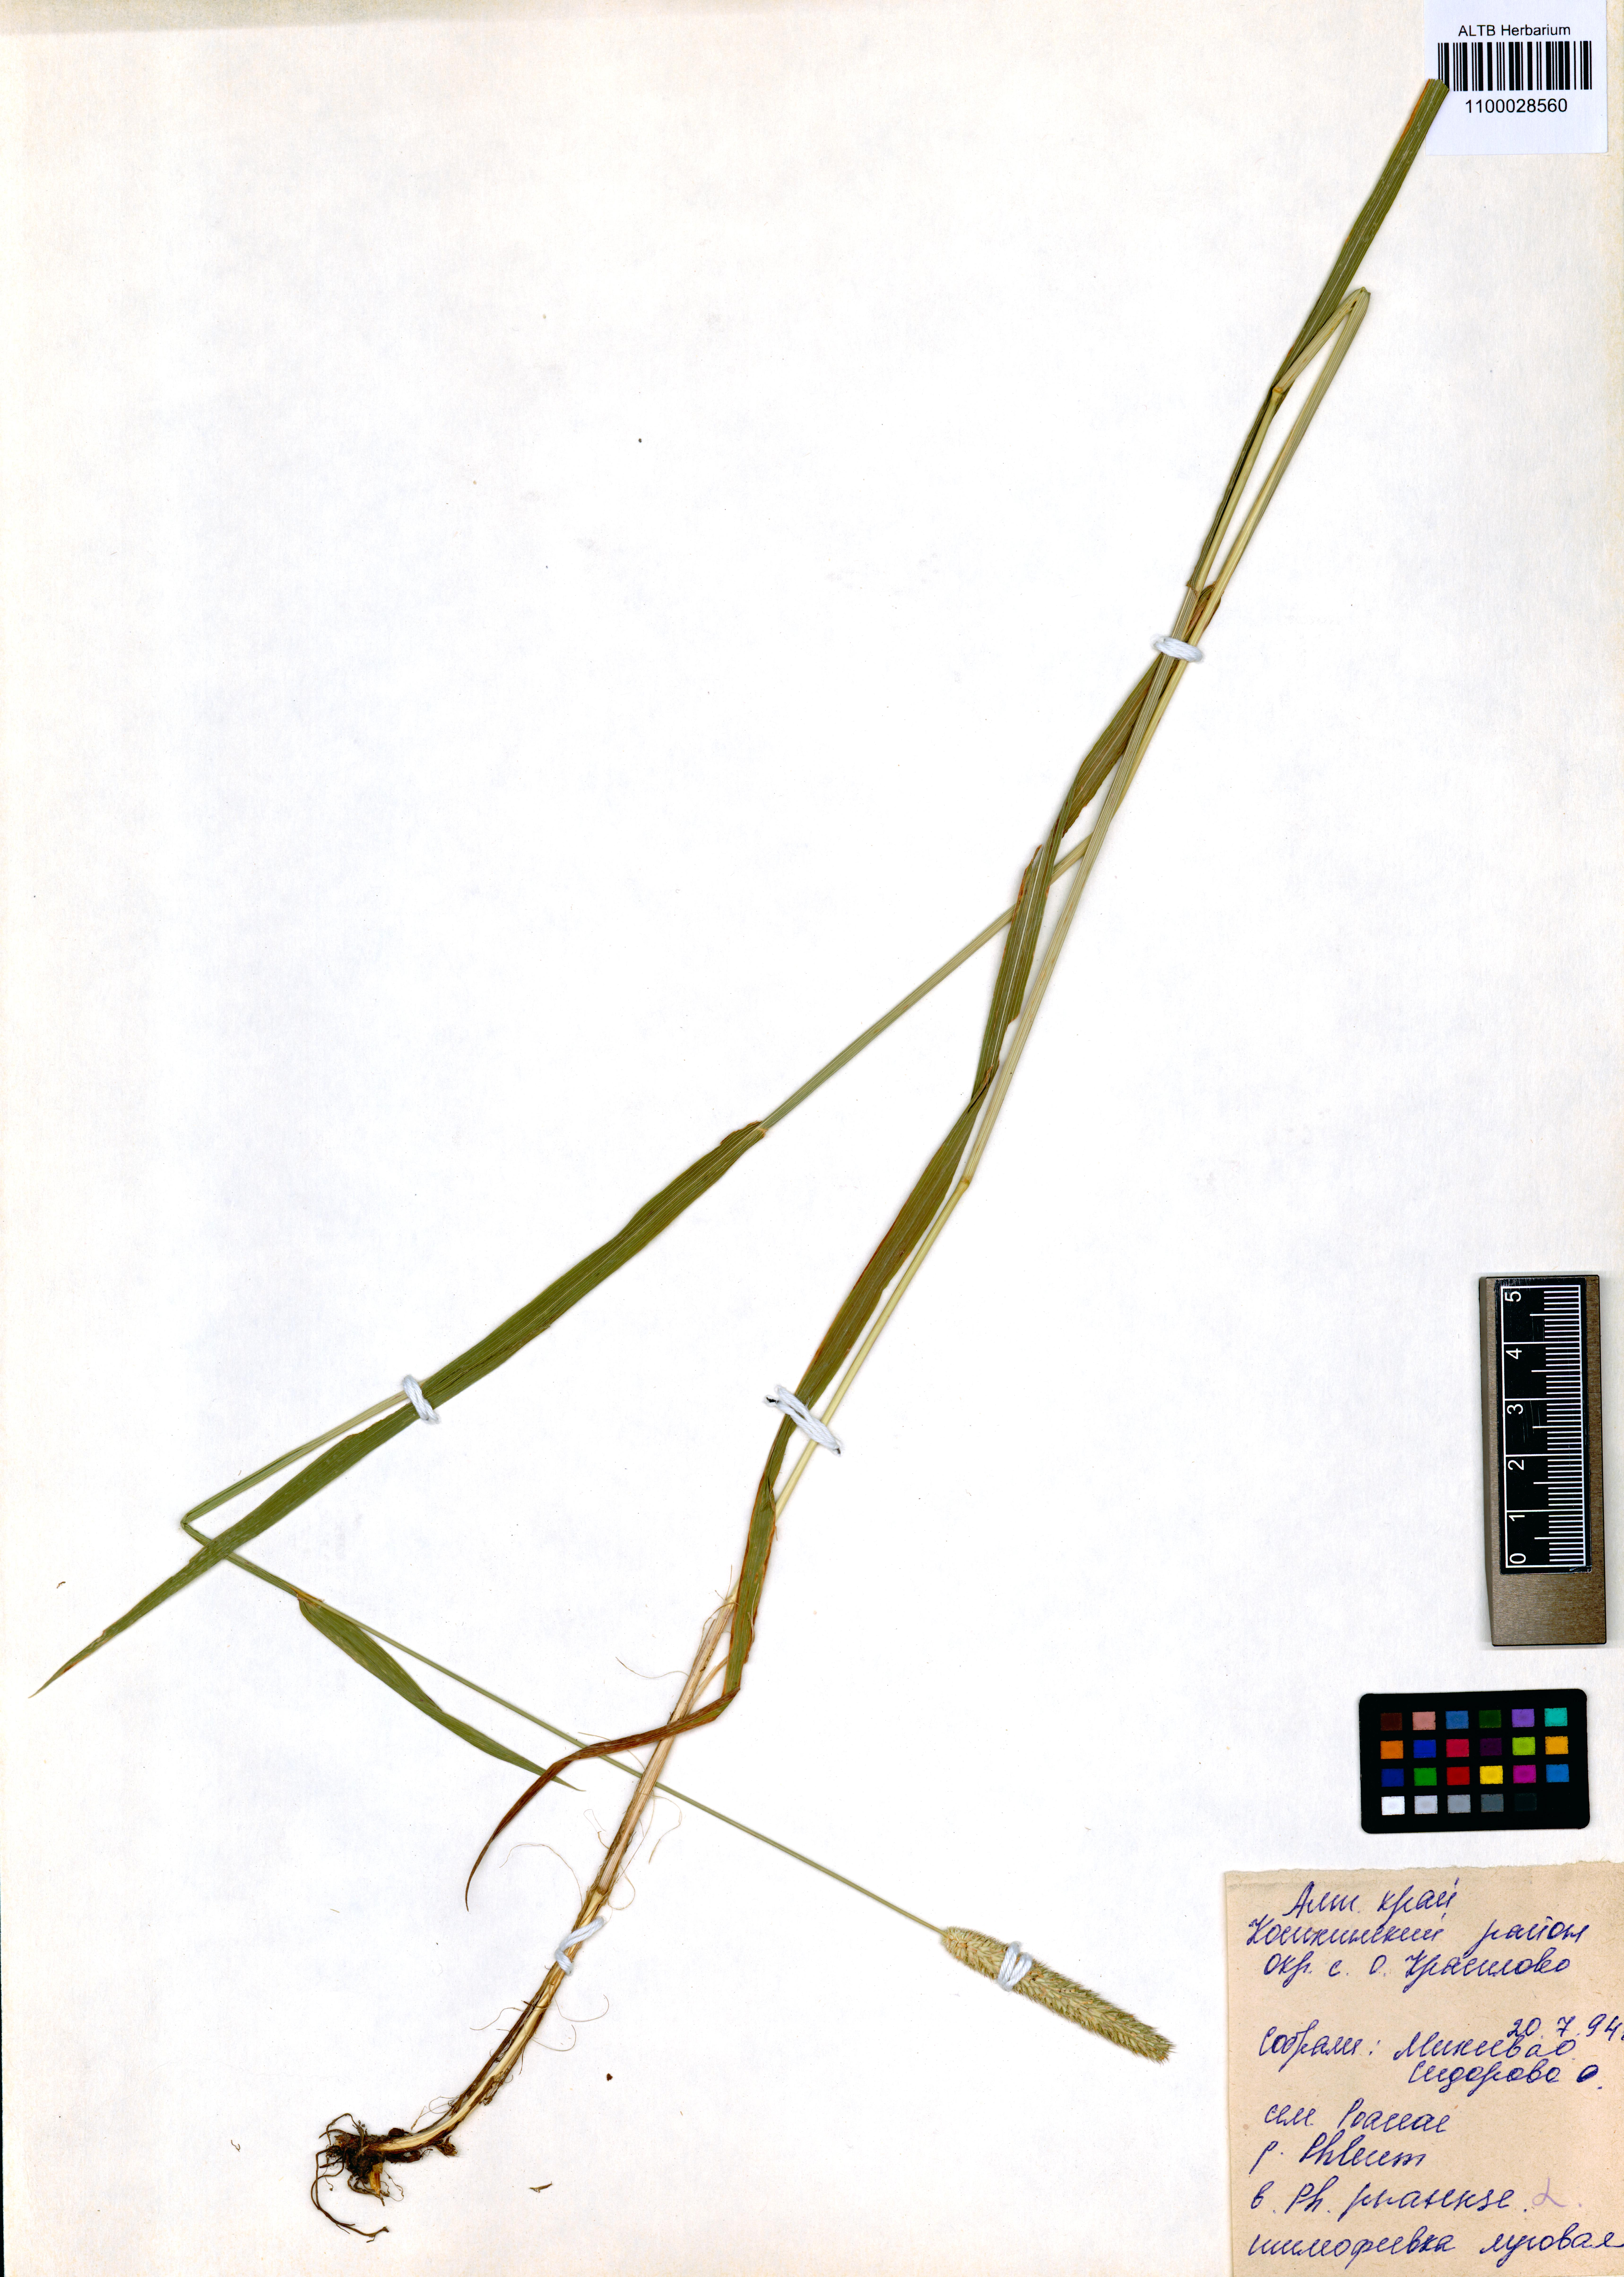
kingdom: Plantae
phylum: Tracheophyta
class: Liliopsida
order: Poales
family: Poaceae
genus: Phleum
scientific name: Phleum pratense
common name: Timothy grass
